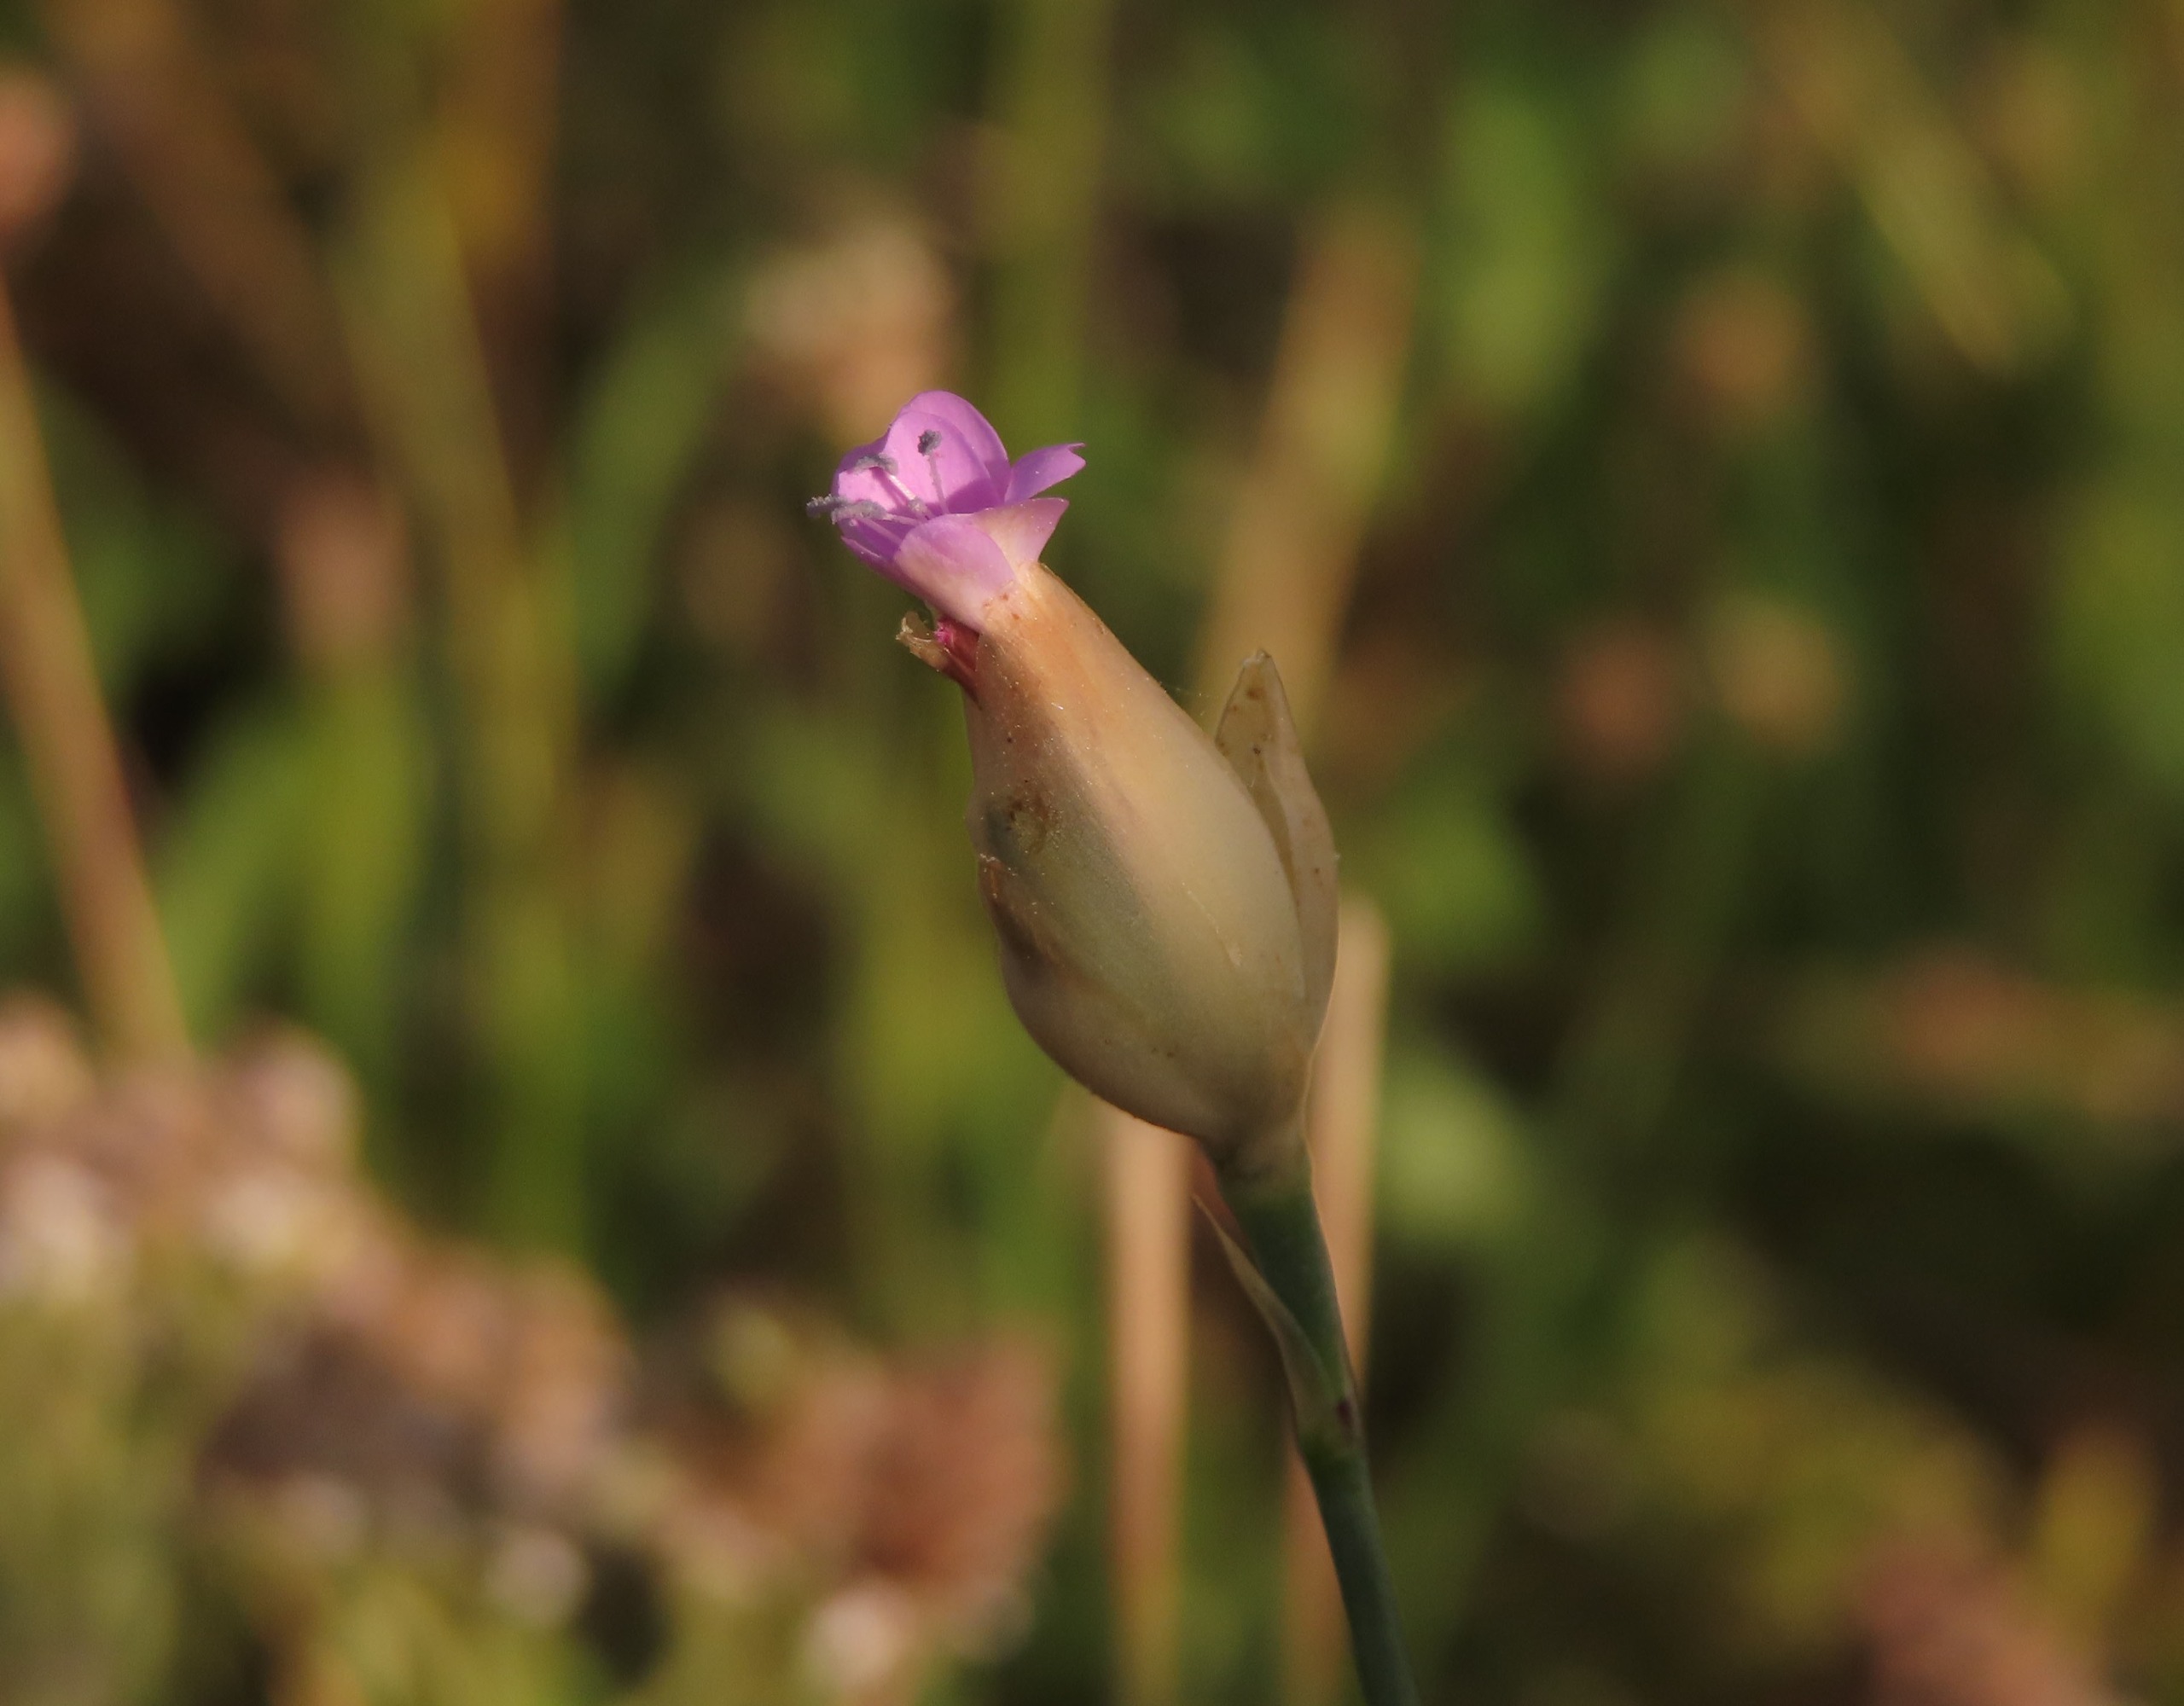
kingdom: Plantae
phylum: Tracheophyta
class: Magnoliopsida
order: Caryophyllales
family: Caryophyllaceae
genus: Petrorhagia
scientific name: Petrorhagia prolifera
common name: Knopnellike
